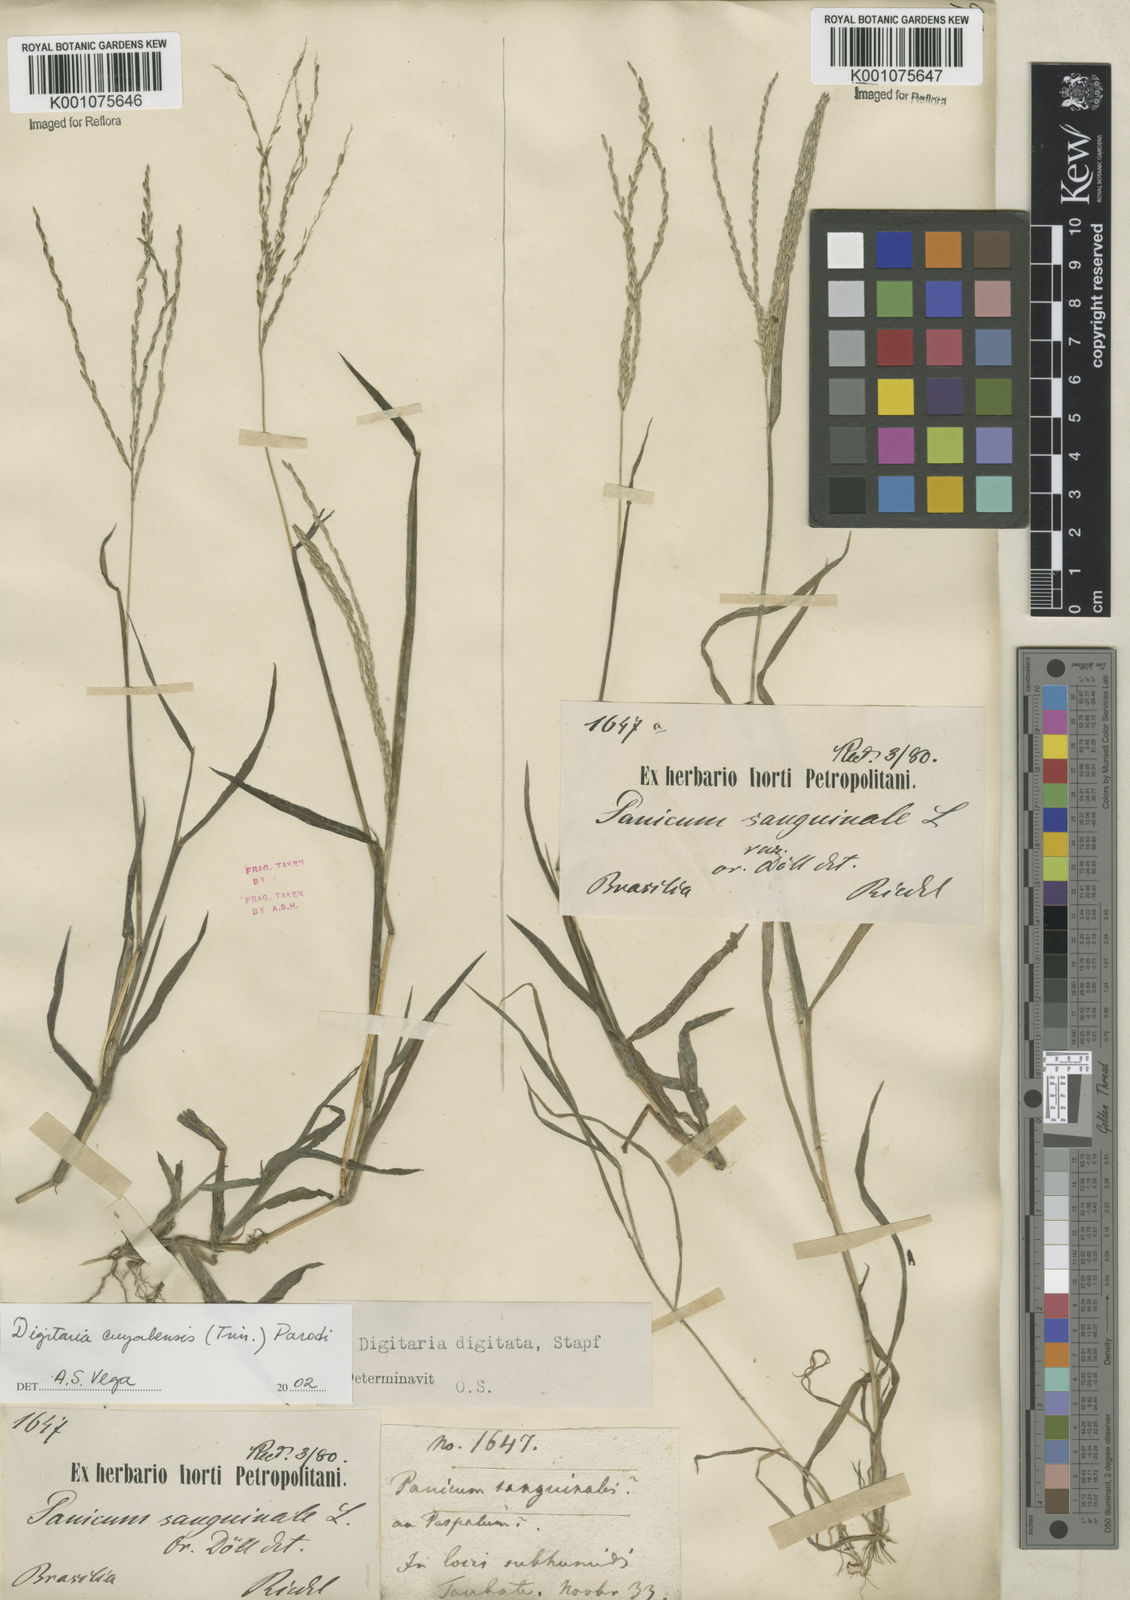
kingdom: Plantae
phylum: Tracheophyta
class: Liliopsida
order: Poales
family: Poaceae
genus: Digitaria
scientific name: Digitaria cuyabensis
